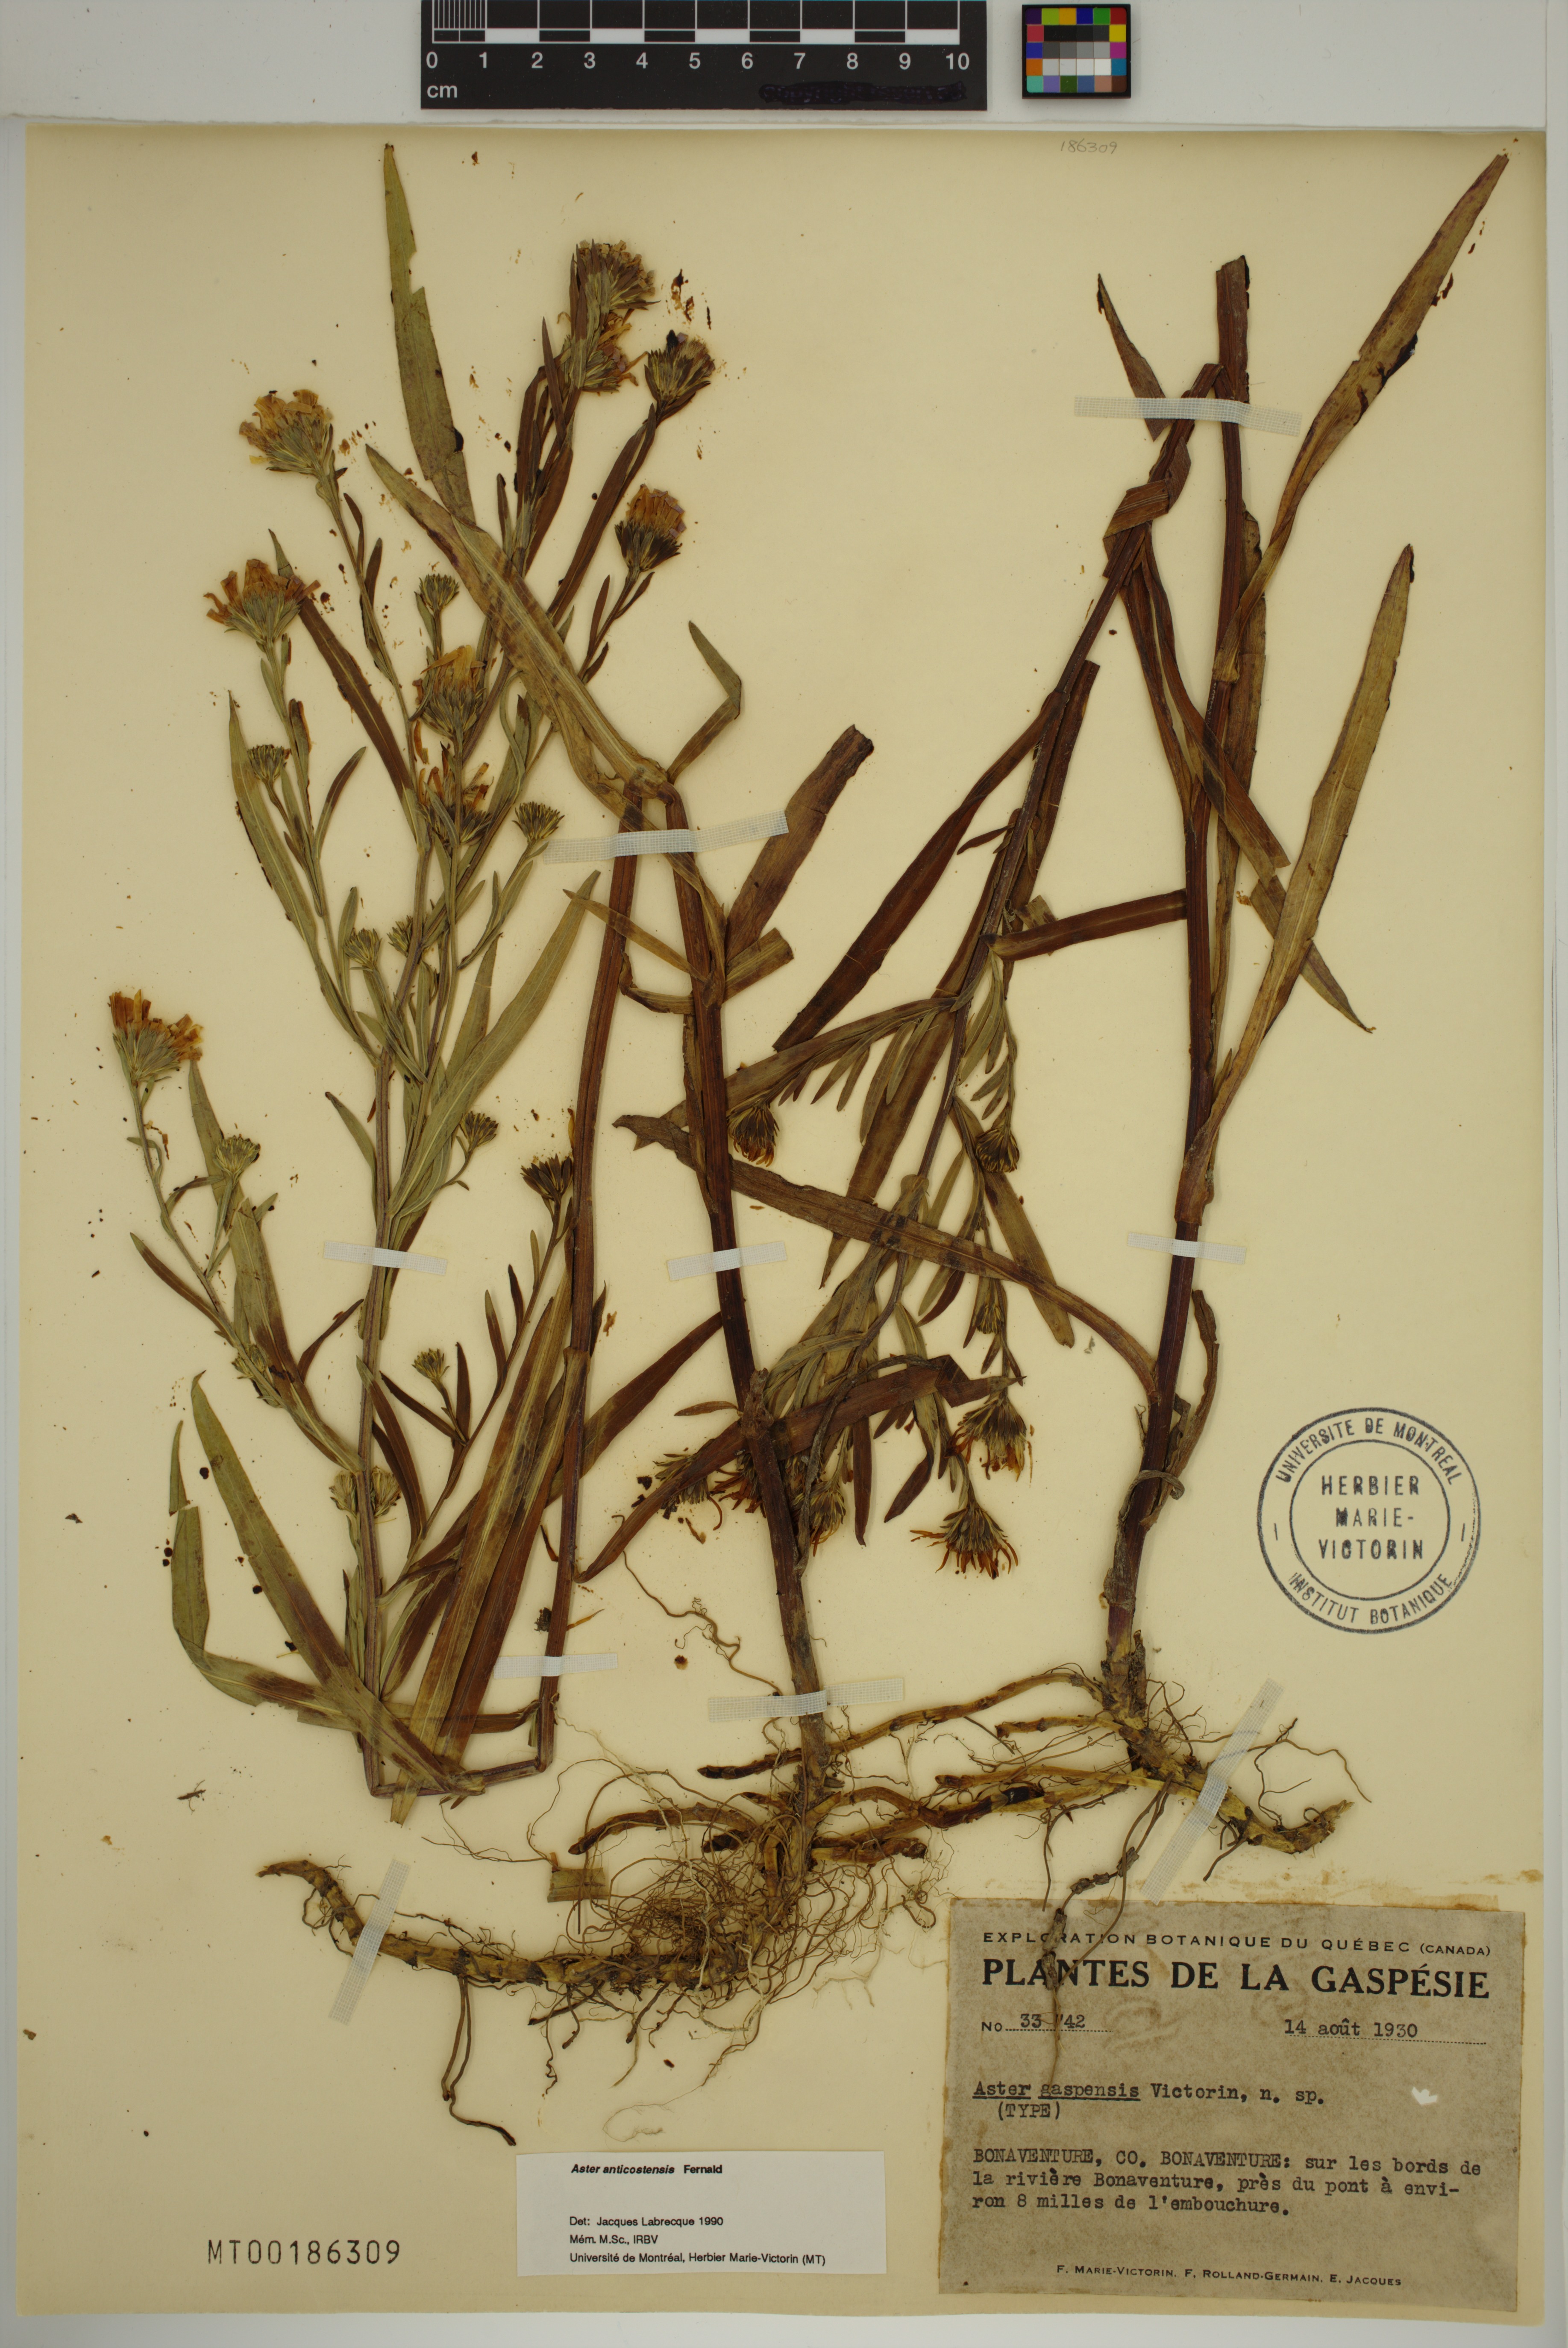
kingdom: Plantae
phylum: Tracheophyta
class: Magnoliopsida
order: Asterales
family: Asteraceae
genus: Symphyotrichum
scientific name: Symphyotrichum anticostense
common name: Anticosti island aster
